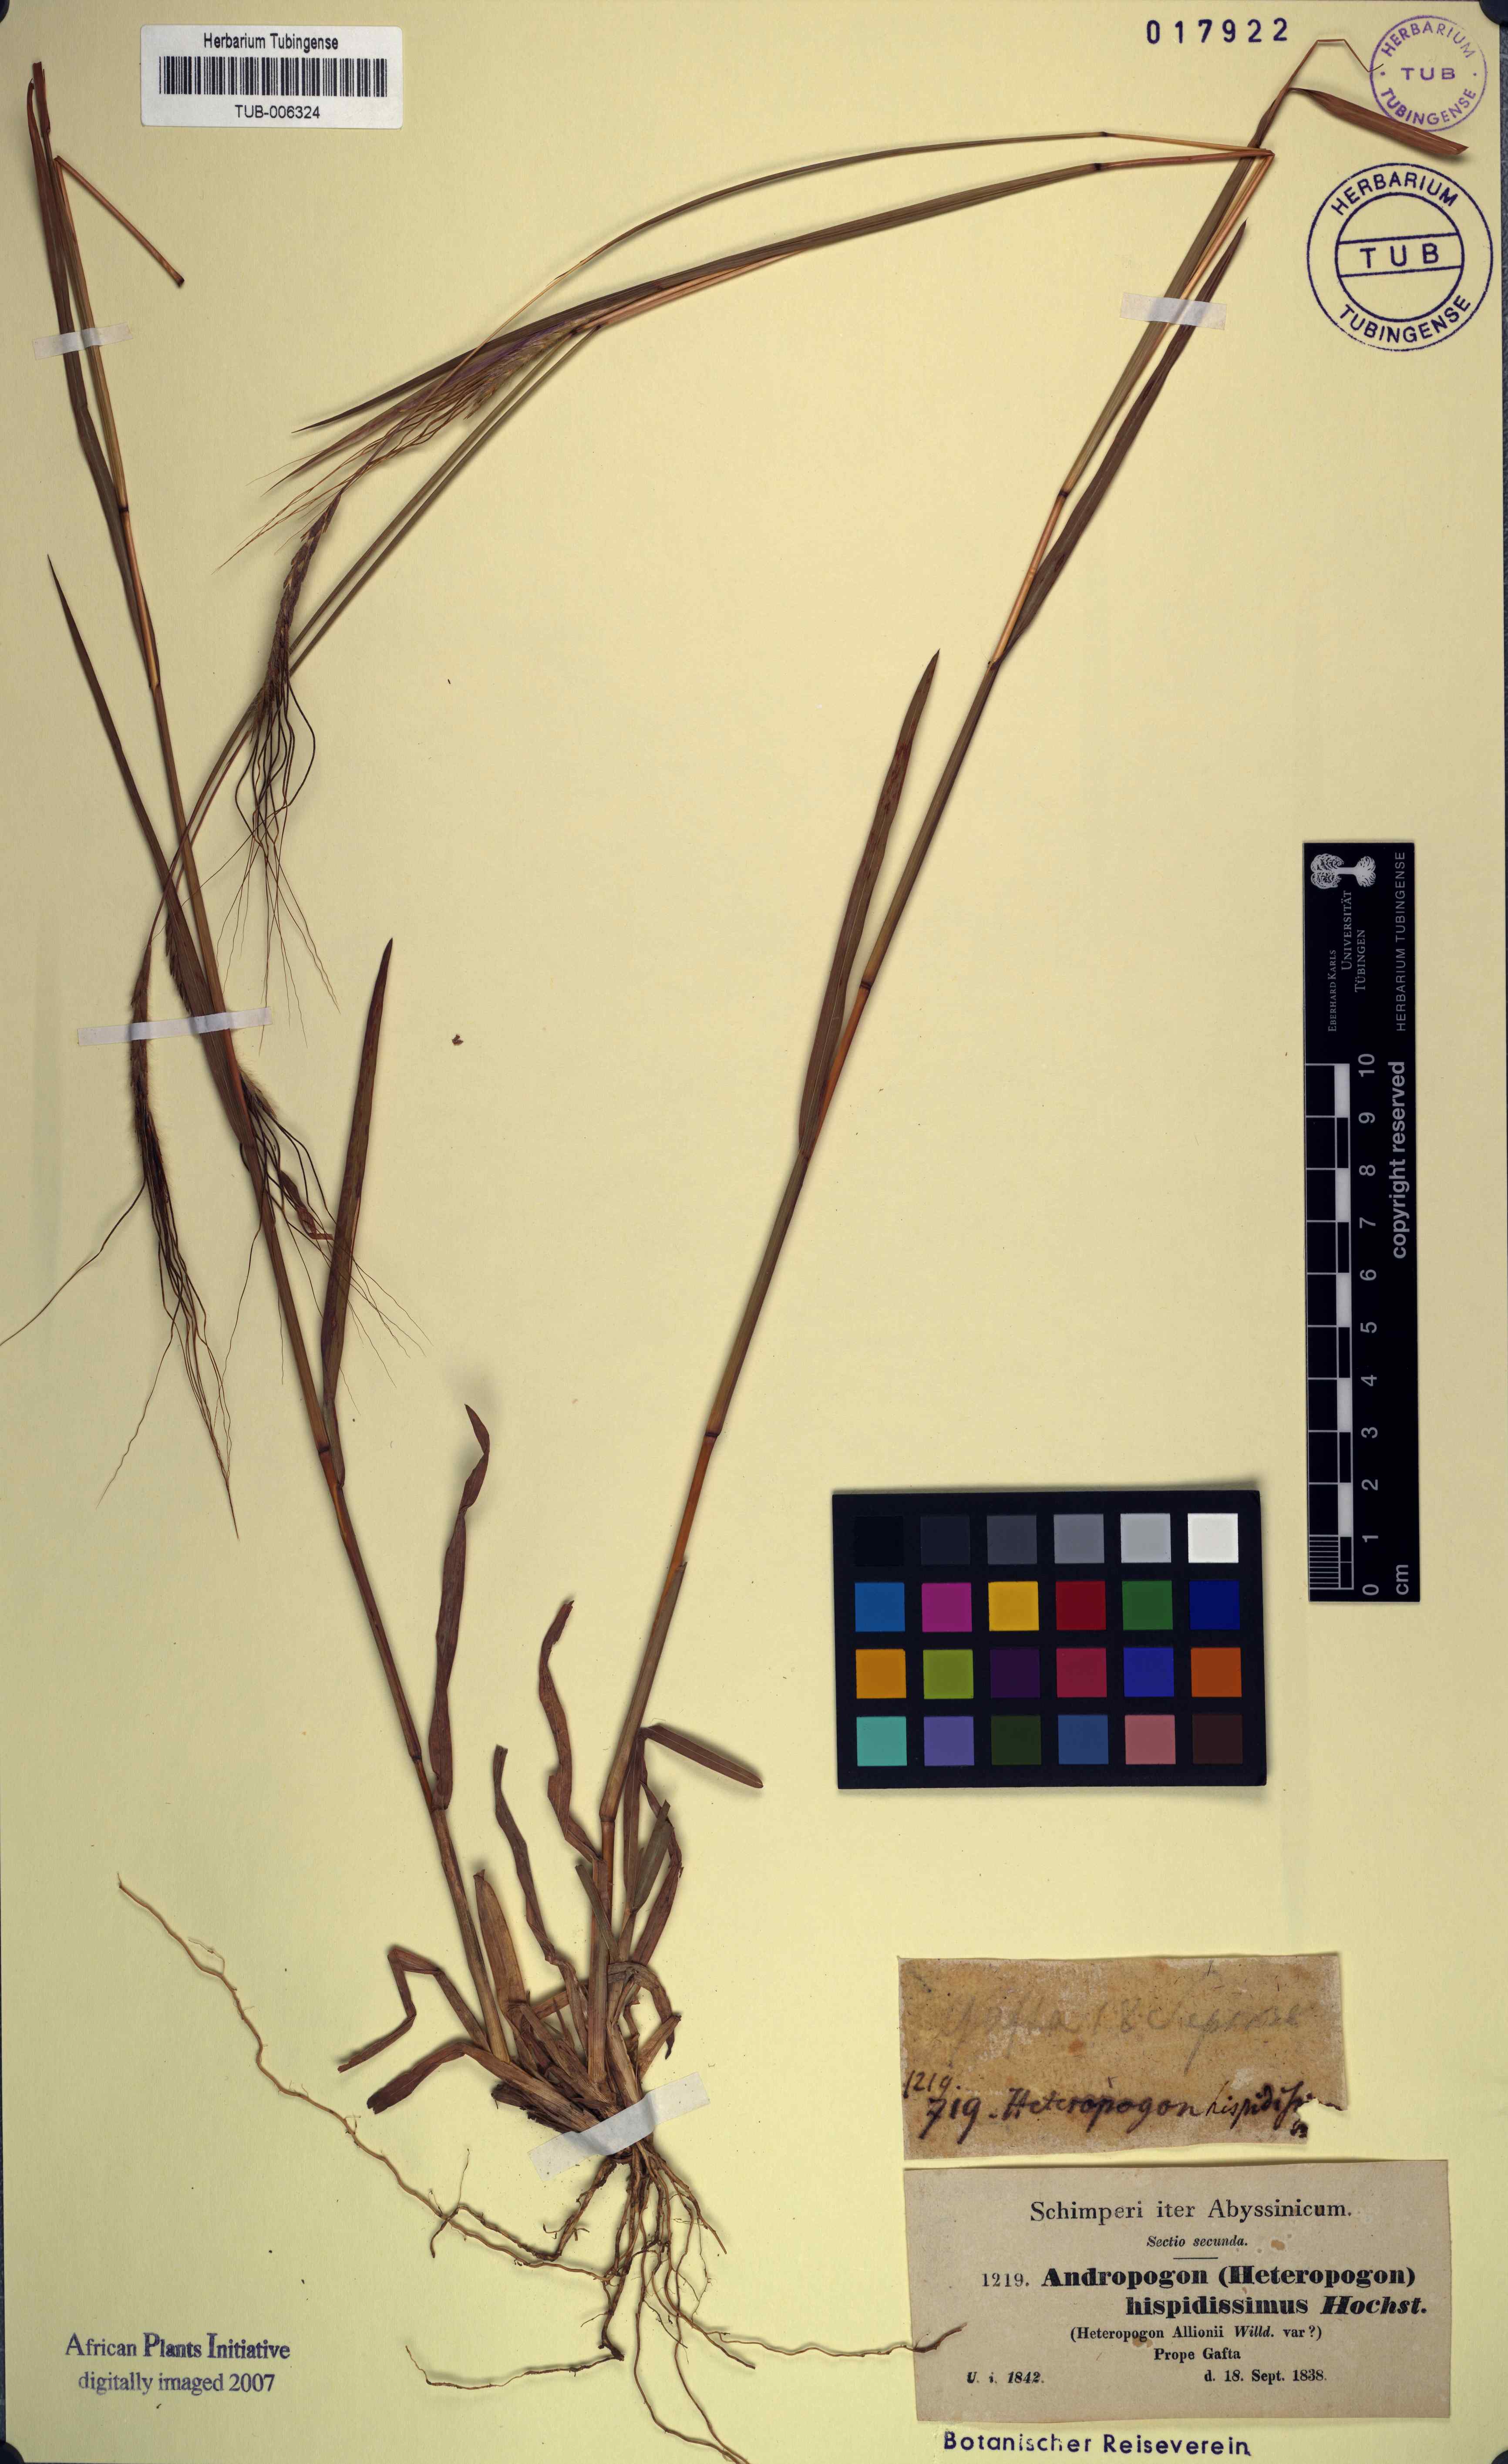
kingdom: Plantae
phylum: Tracheophyta
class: Liliopsida
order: Poales
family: Poaceae
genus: Heteropogon
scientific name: Heteropogon contortus
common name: Tanglehead
